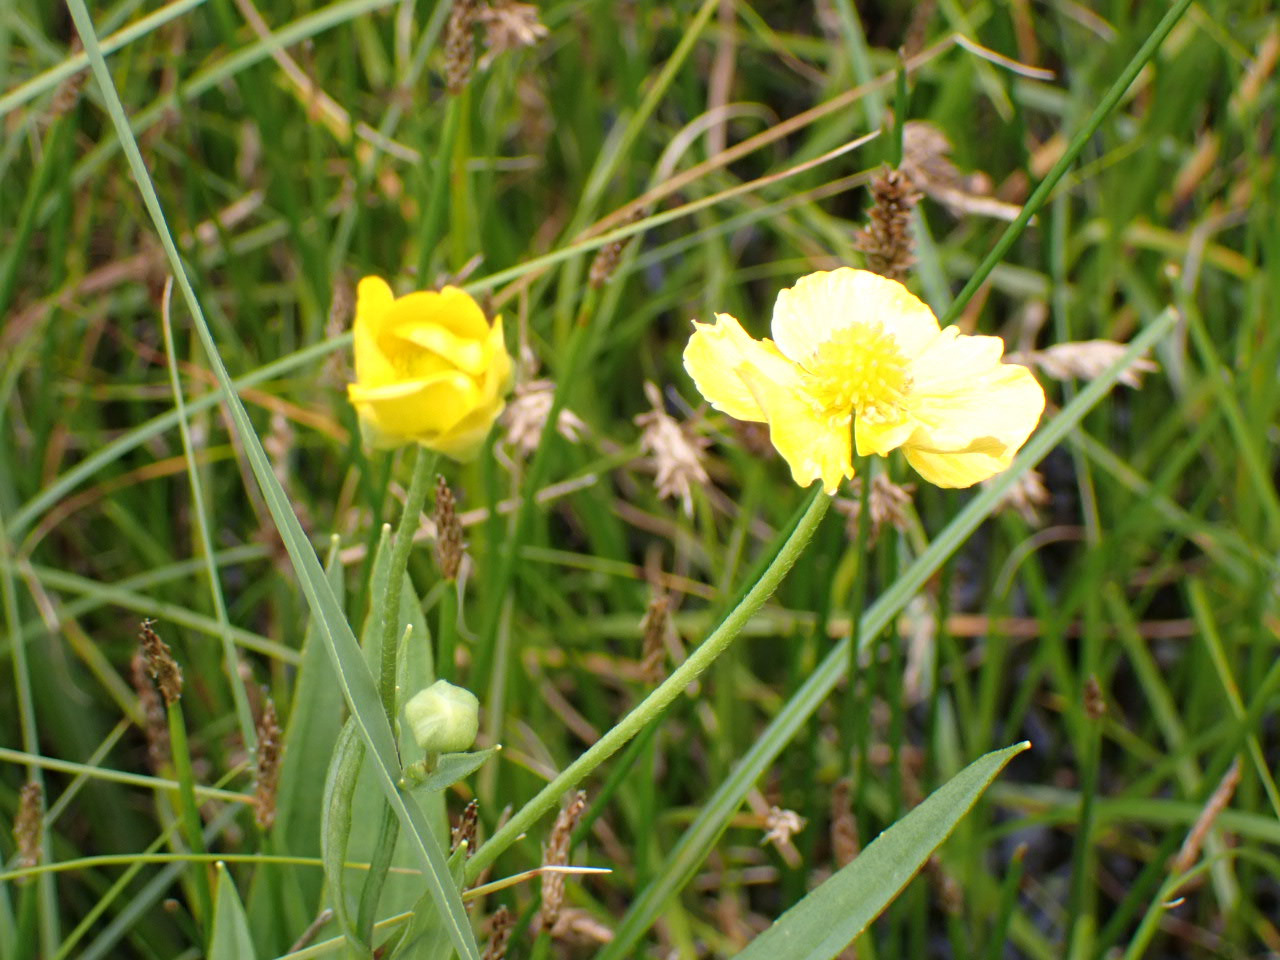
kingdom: Plantae
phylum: Tracheophyta
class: Magnoliopsida
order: Ranunculales
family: Ranunculaceae
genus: Ranunculus
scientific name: Ranunculus lingua
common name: Langbladet ranunkel
